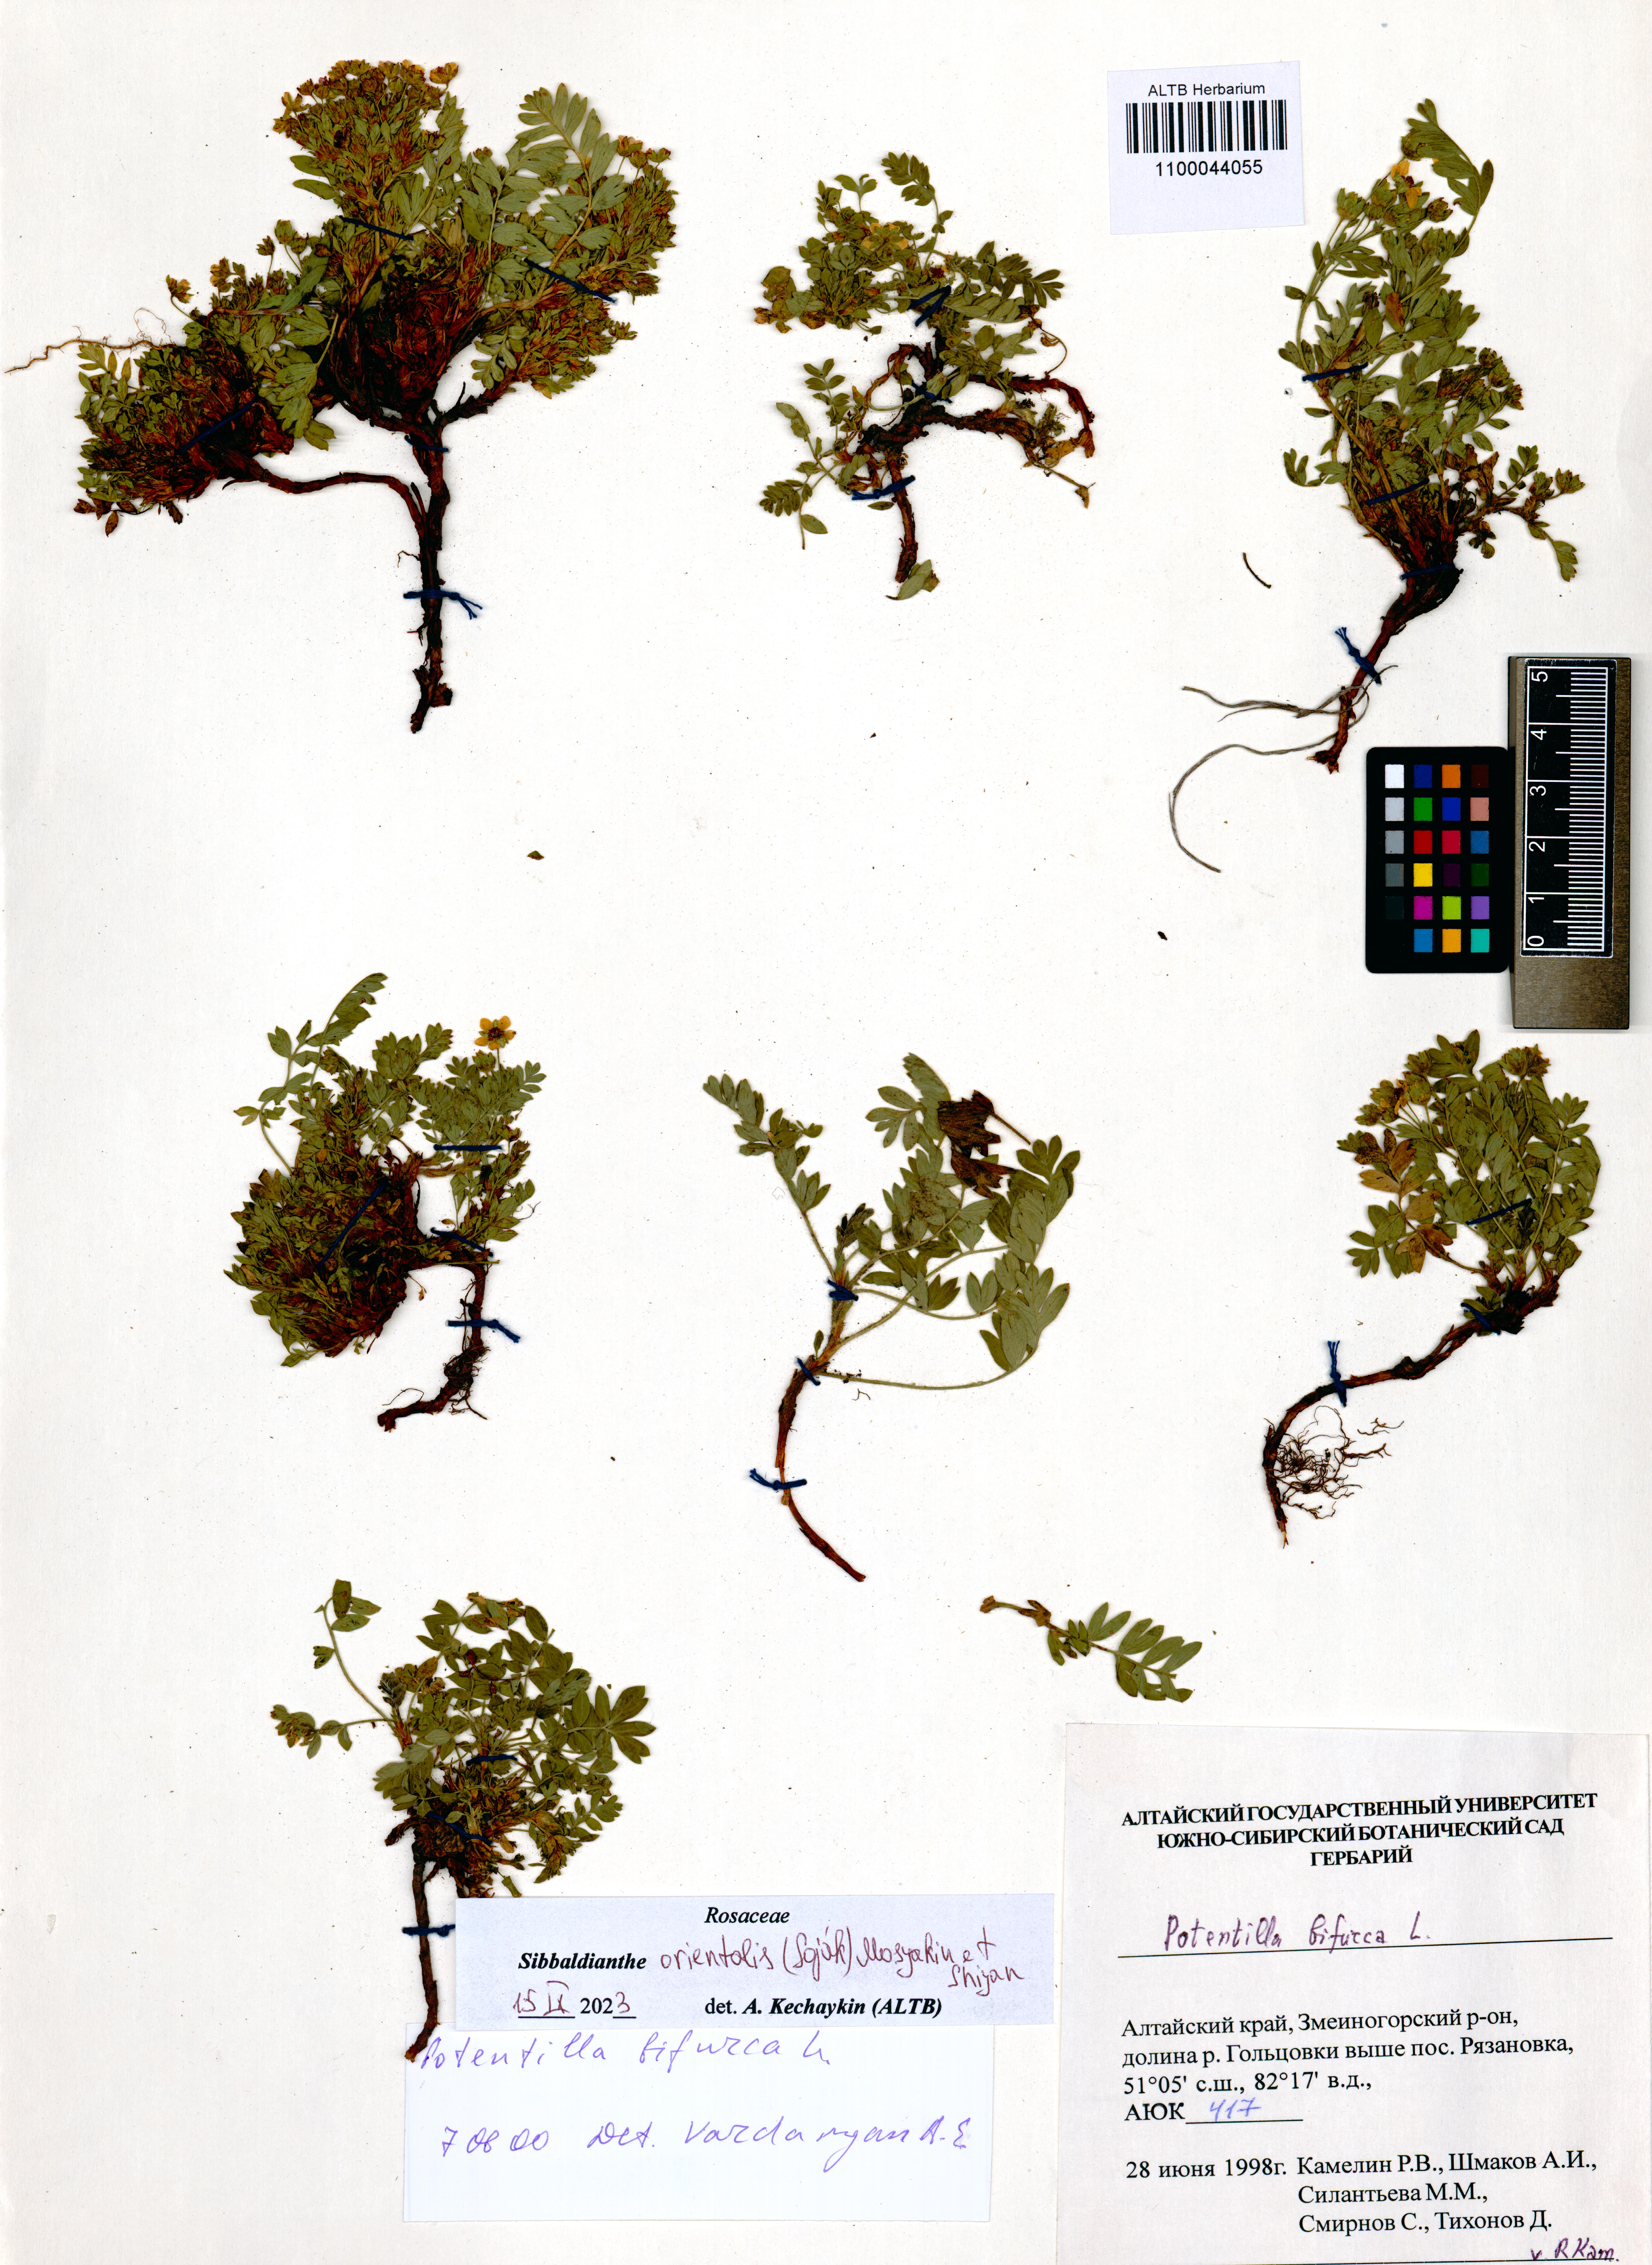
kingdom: Plantae
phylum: Tracheophyta
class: Magnoliopsida
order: Rosales
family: Rosaceae
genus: Sibbaldianthe
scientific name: Sibbaldianthe orientalis
